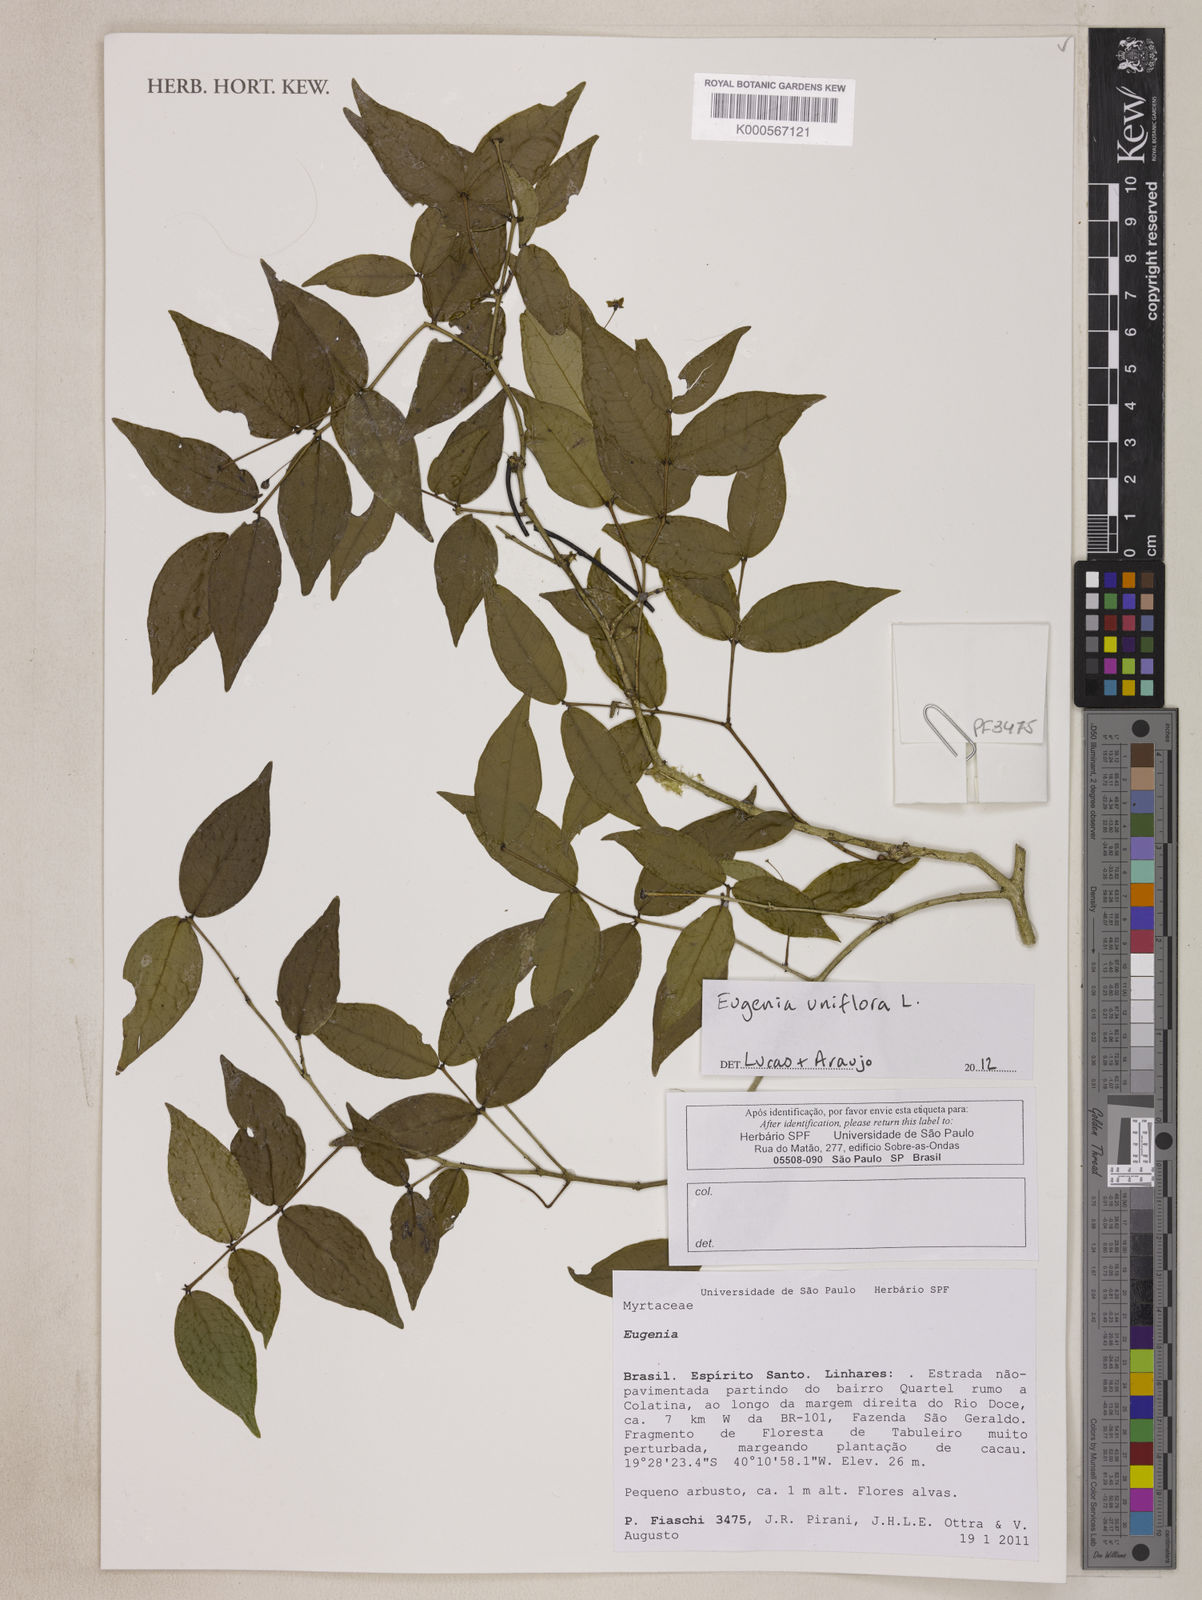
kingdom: Plantae
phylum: Tracheophyta
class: Magnoliopsida
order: Myrtales
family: Myrtaceae
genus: Eugenia
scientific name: Eugenia uniflora
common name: Surinam cherry
